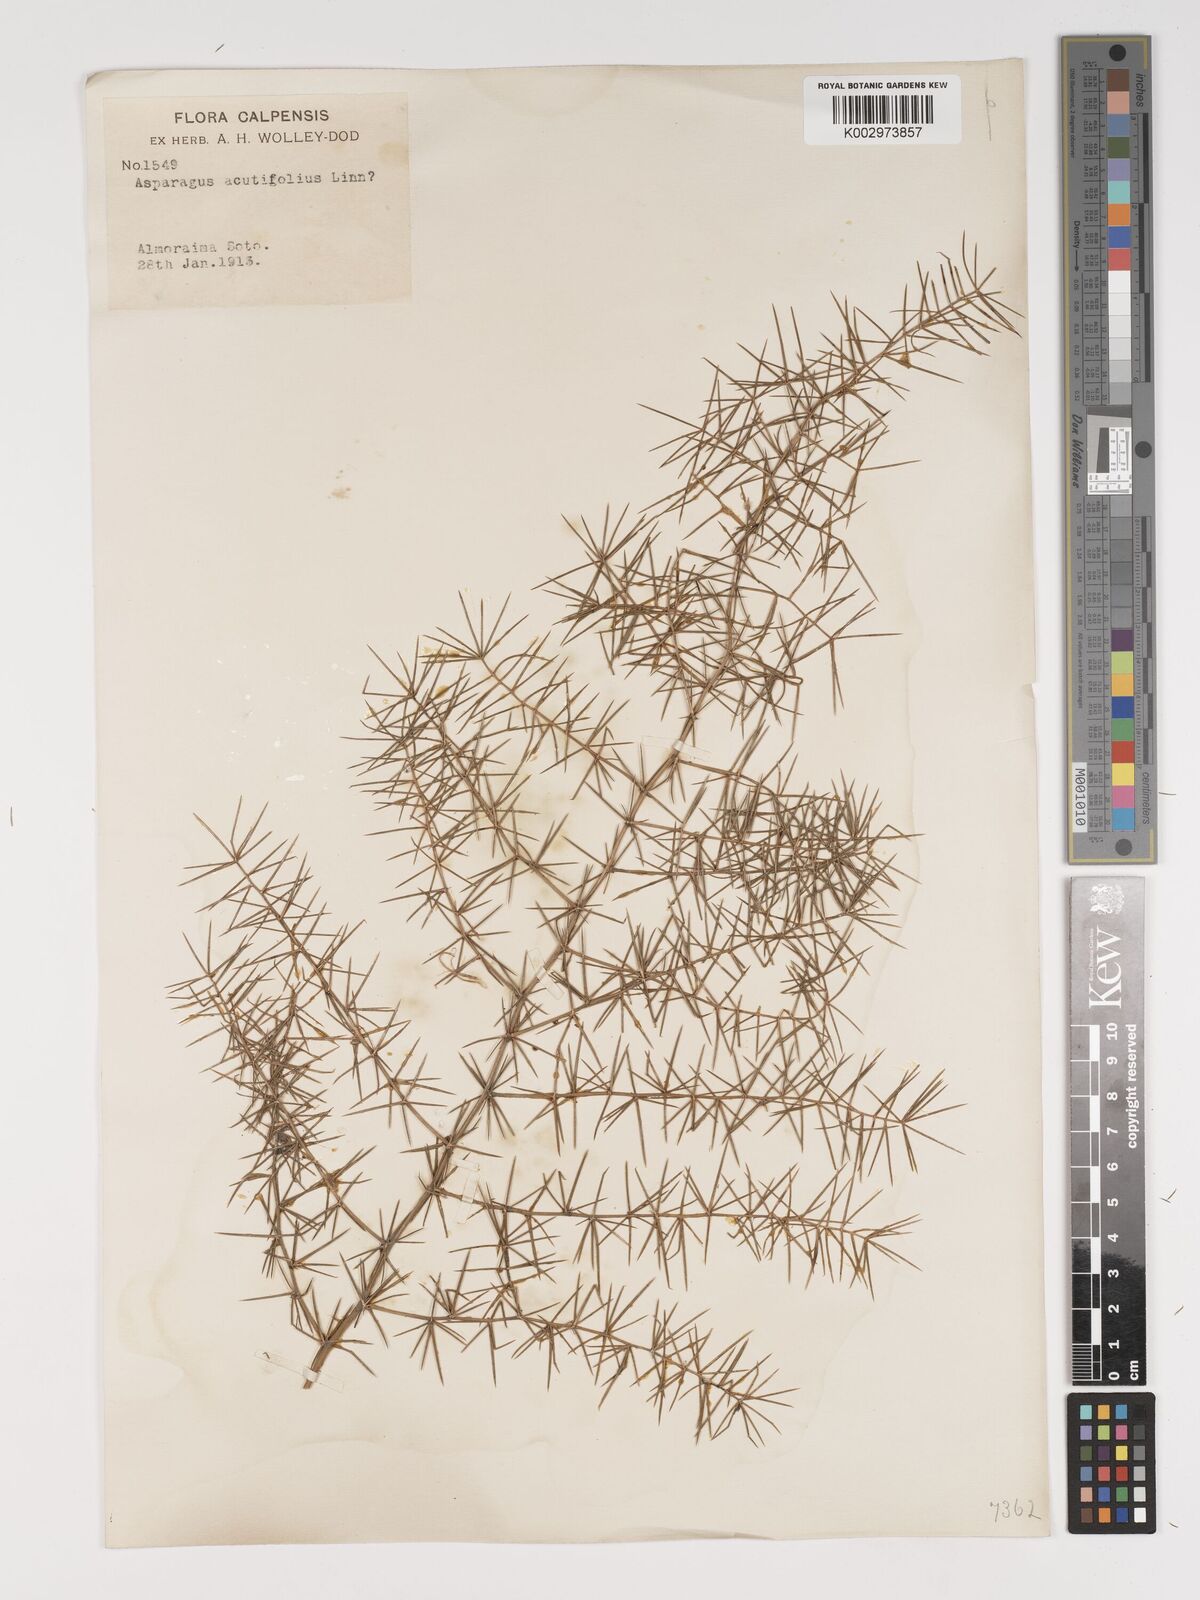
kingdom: Plantae
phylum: Tracheophyta
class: Liliopsida
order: Asparagales
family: Asparagaceae
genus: Asparagus
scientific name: Asparagus acutifolius
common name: Wild asparagus
